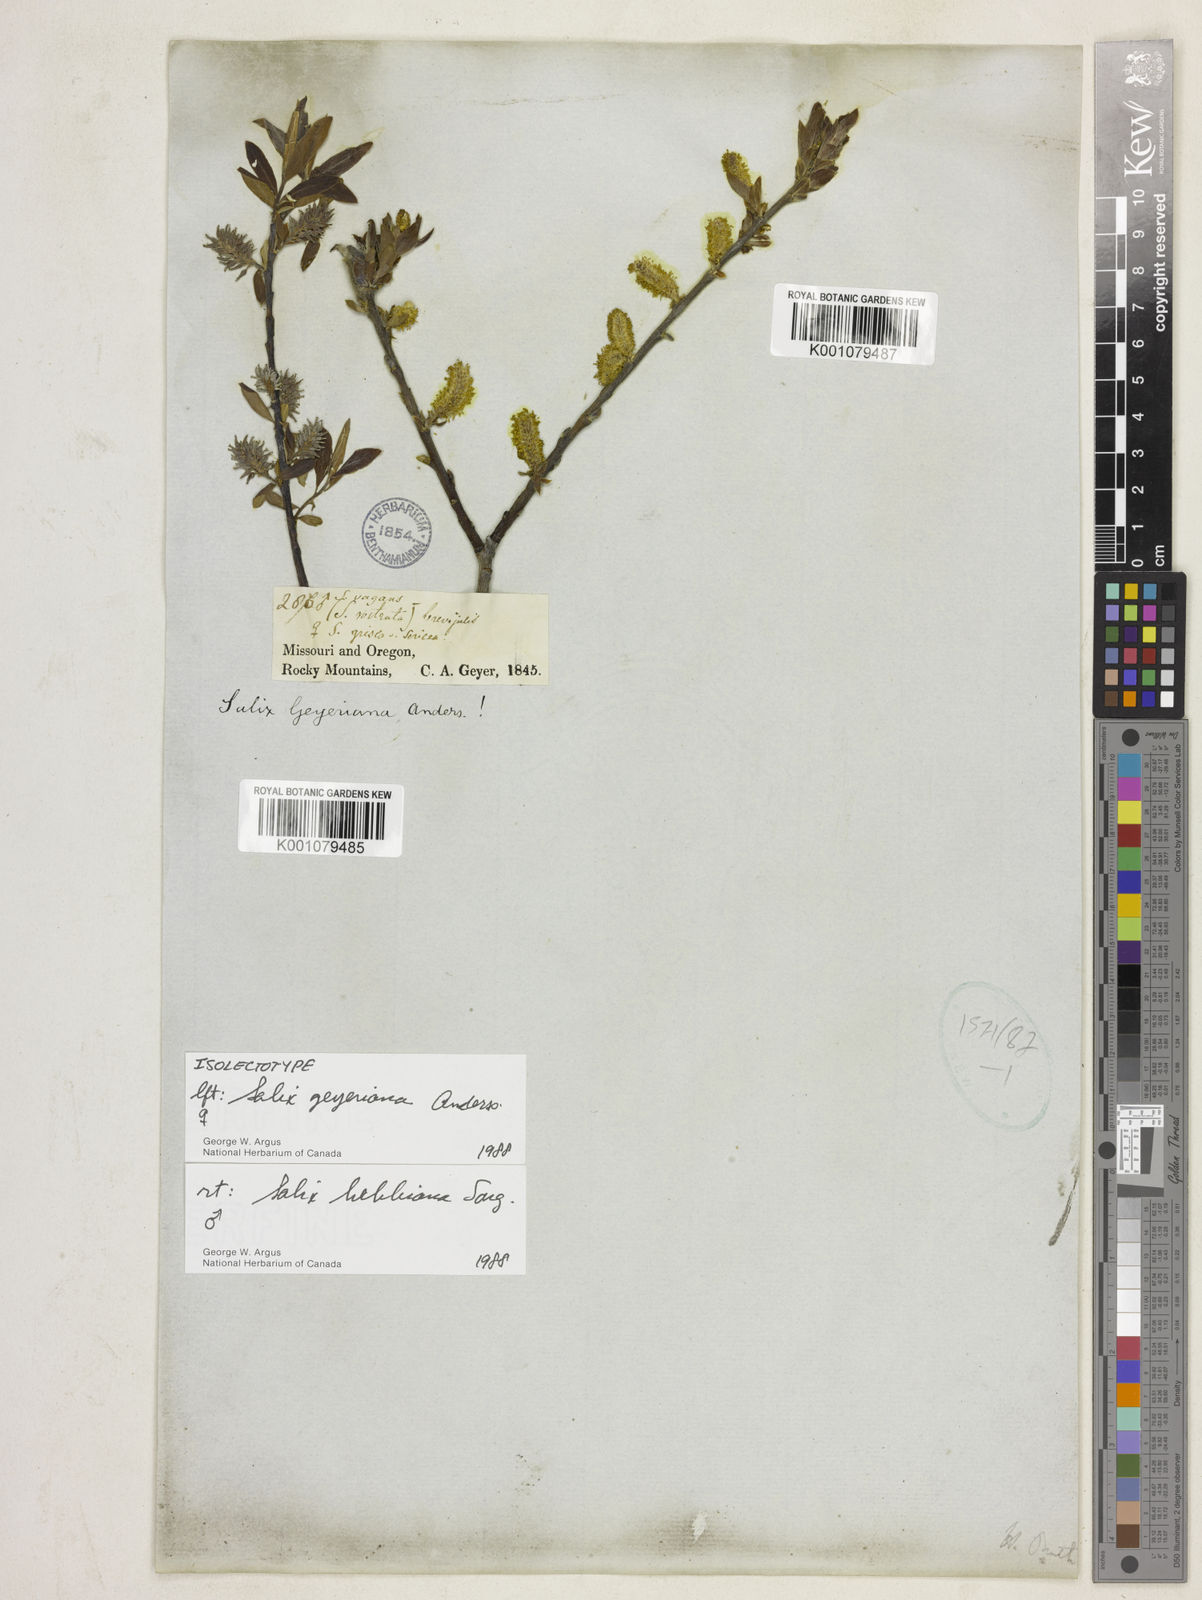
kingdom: Plantae
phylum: Tracheophyta
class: Magnoliopsida
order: Malpighiales
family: Salicaceae
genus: Salix
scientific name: Salix geyeriana
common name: Geyer's willow
